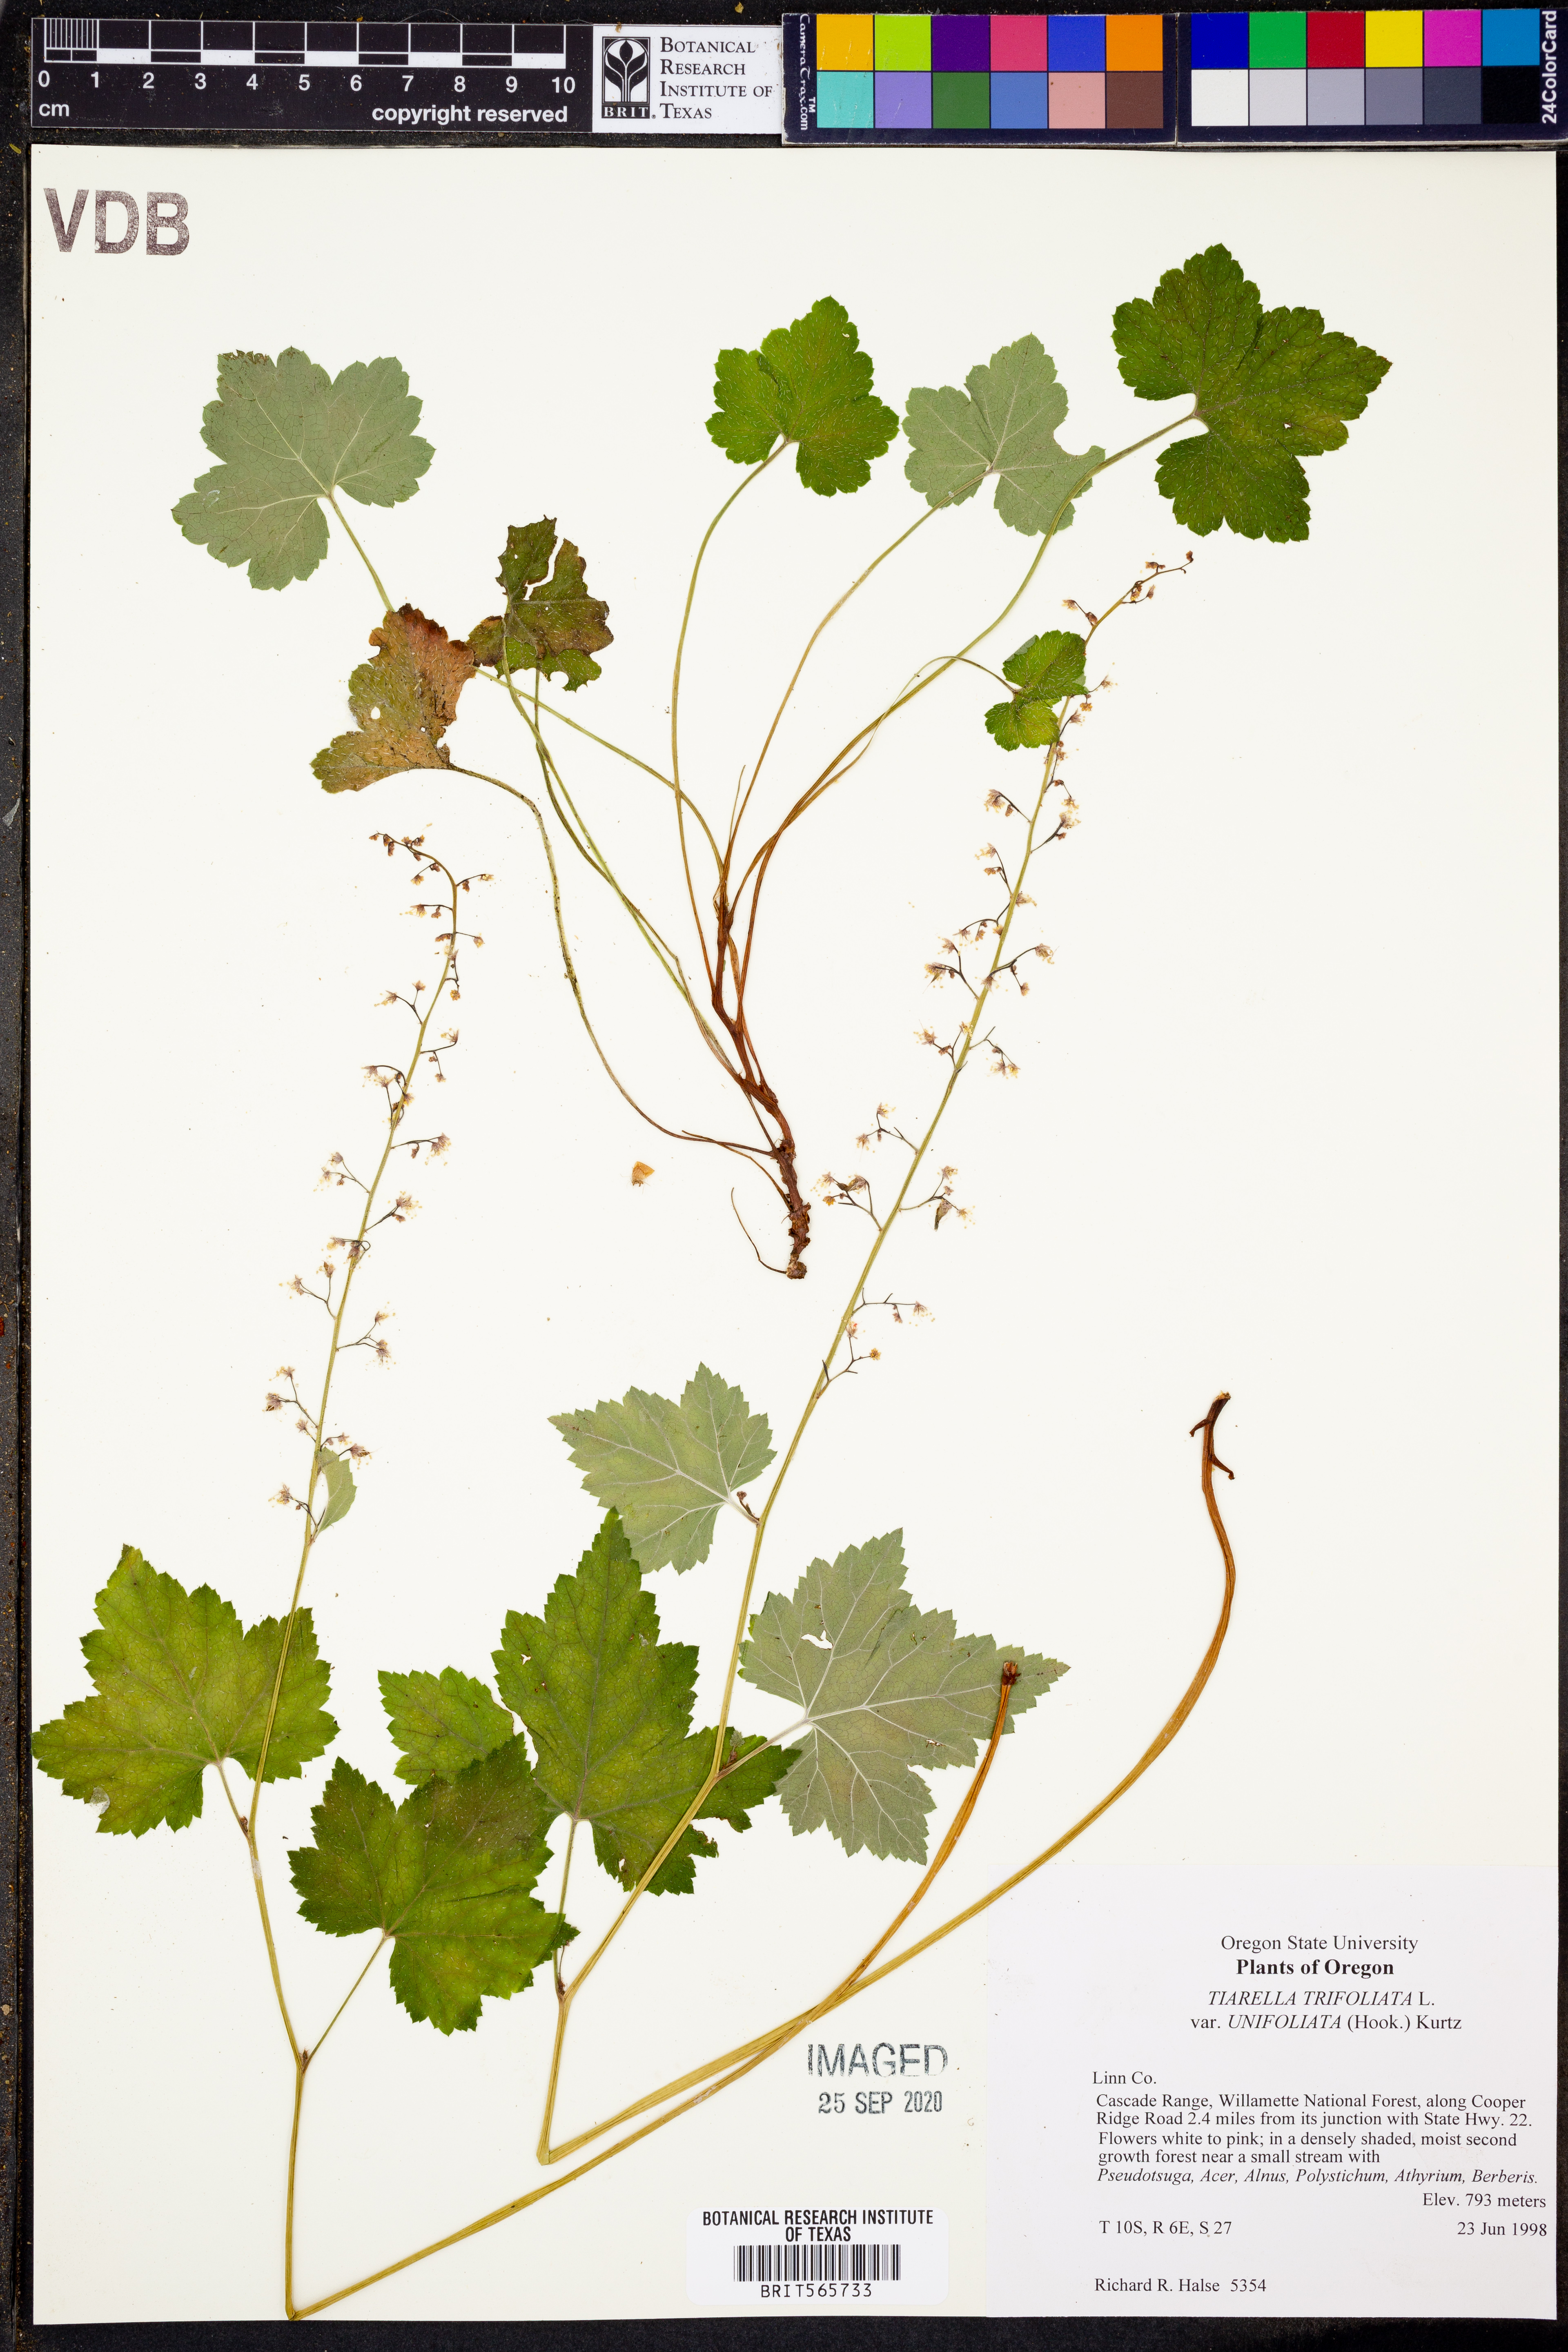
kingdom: Plantae
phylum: Tracheophyta
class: Magnoliopsida
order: Saxifragales
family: Saxifragaceae
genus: Tiarella
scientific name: Tiarella trifoliata
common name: Sugar-scoop
